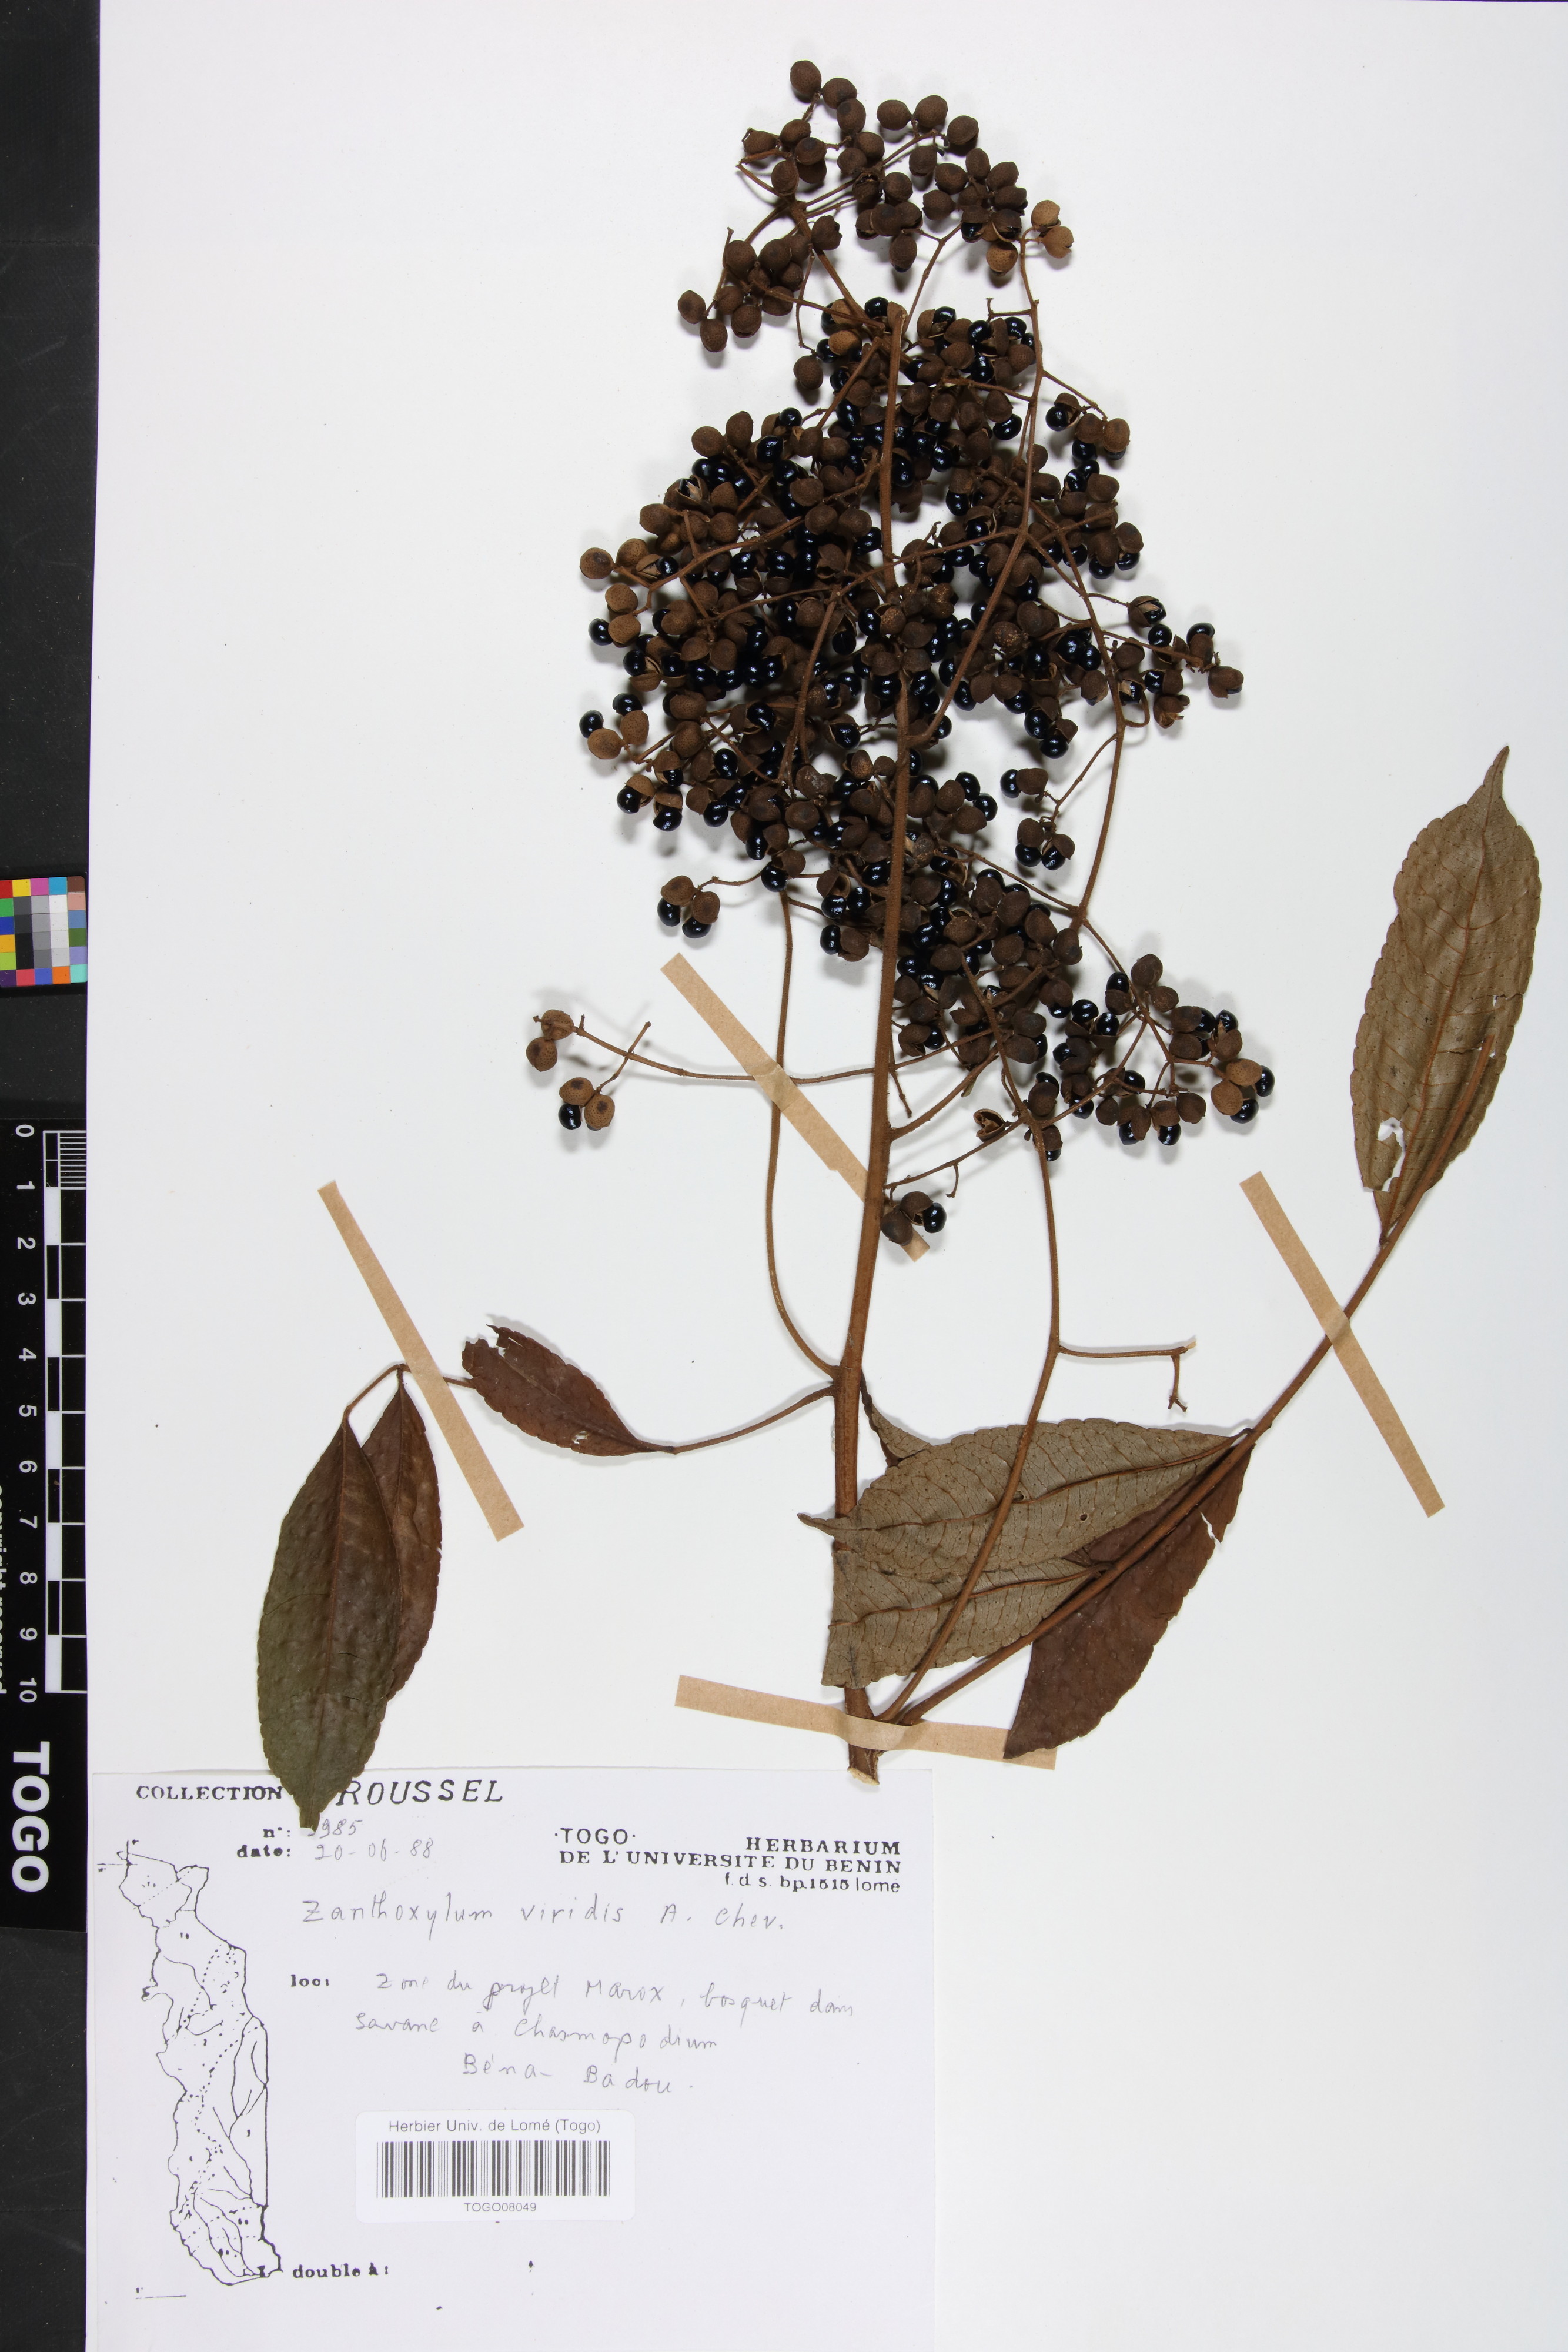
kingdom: Plantae
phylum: Tracheophyta
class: Magnoliopsida
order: Sapindales
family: Rutaceae
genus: Zanthoxylum
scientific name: Zanthoxylum viride
